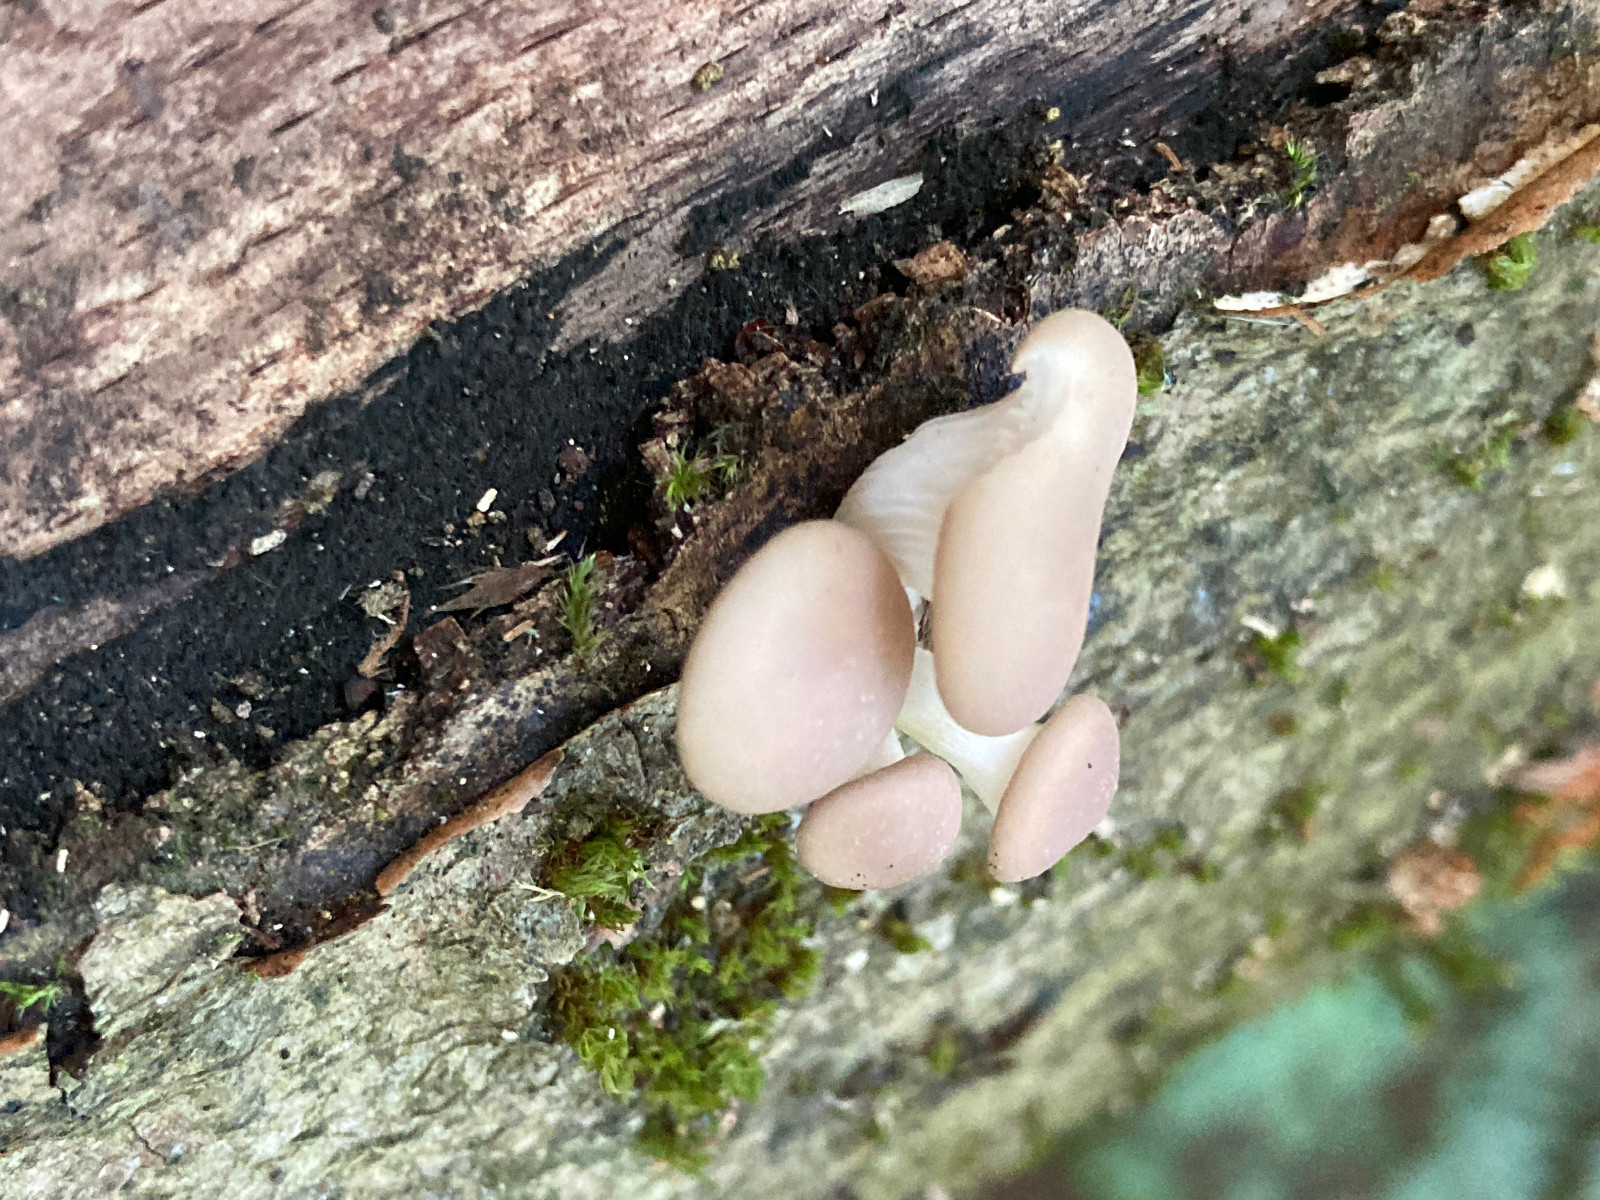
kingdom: Fungi
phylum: Basidiomycota
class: Agaricomycetes
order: Agaricales
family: Pleurotaceae
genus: Pleurotus
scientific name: Pleurotus pulmonarius
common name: sommer-østershat
